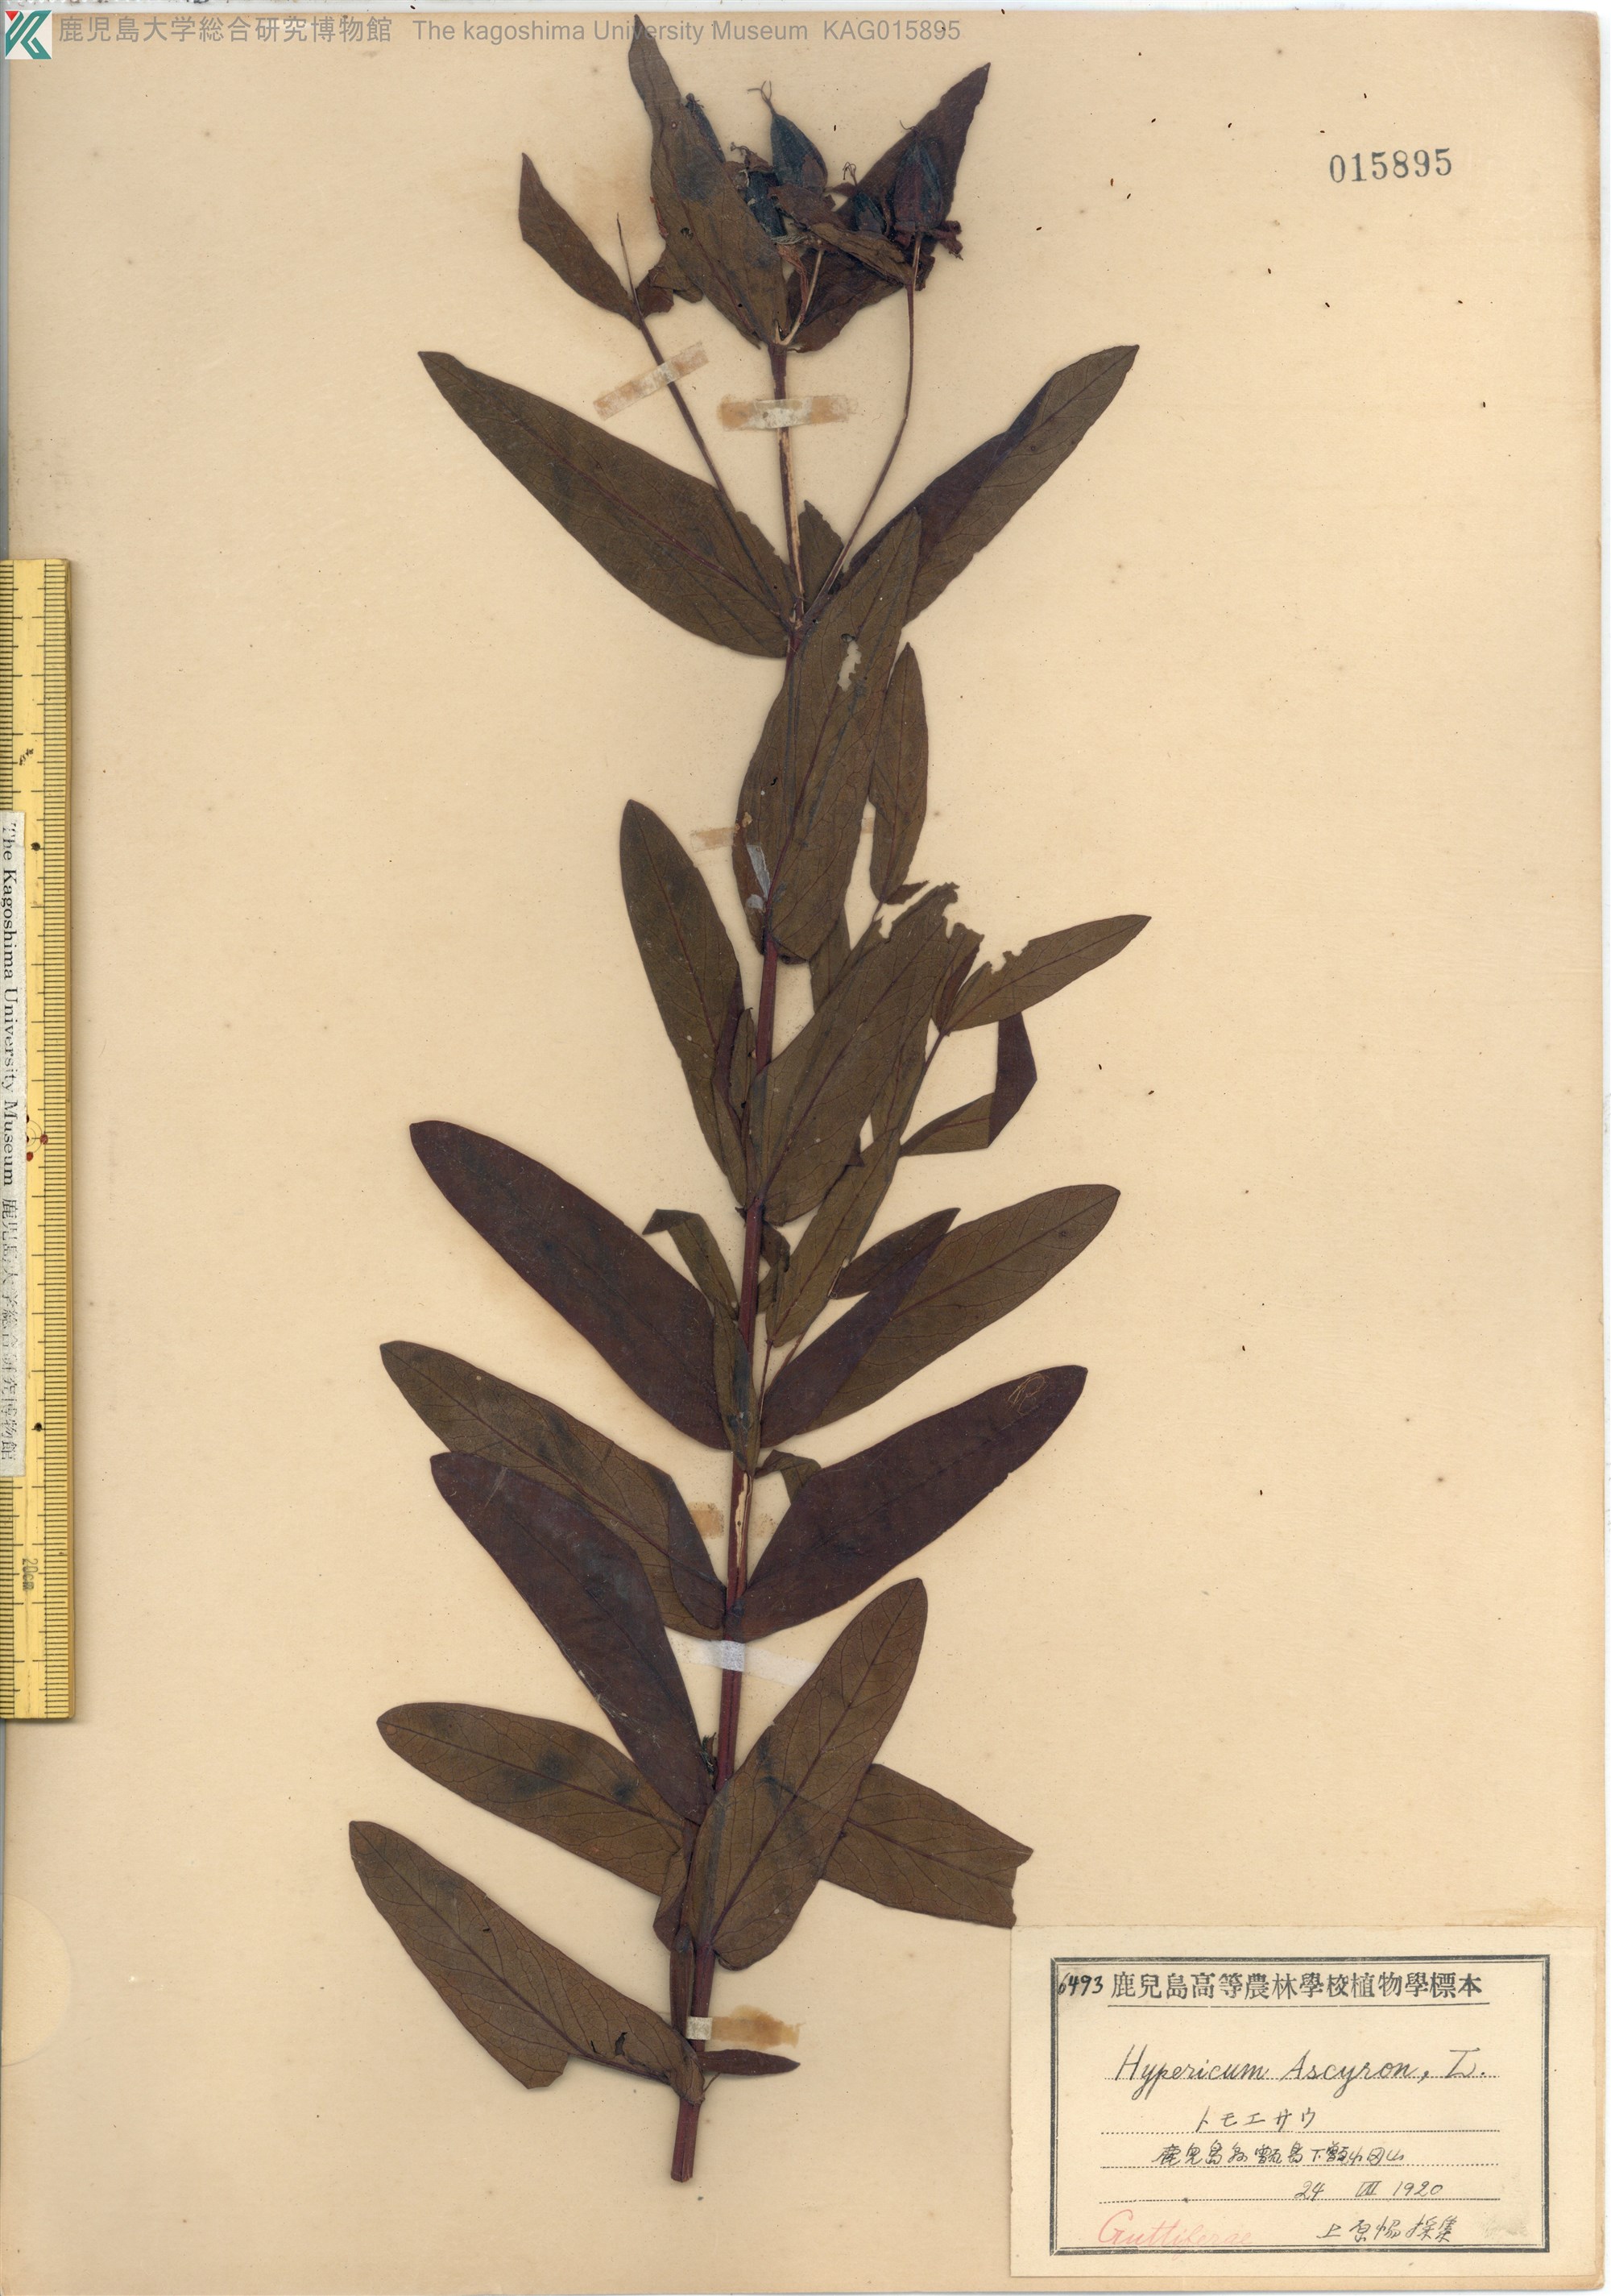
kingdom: Plantae
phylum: Tracheophyta
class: Magnoliopsida
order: Malpighiales
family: Hypericaceae
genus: Hypericum
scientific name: Hypericum ascyron
